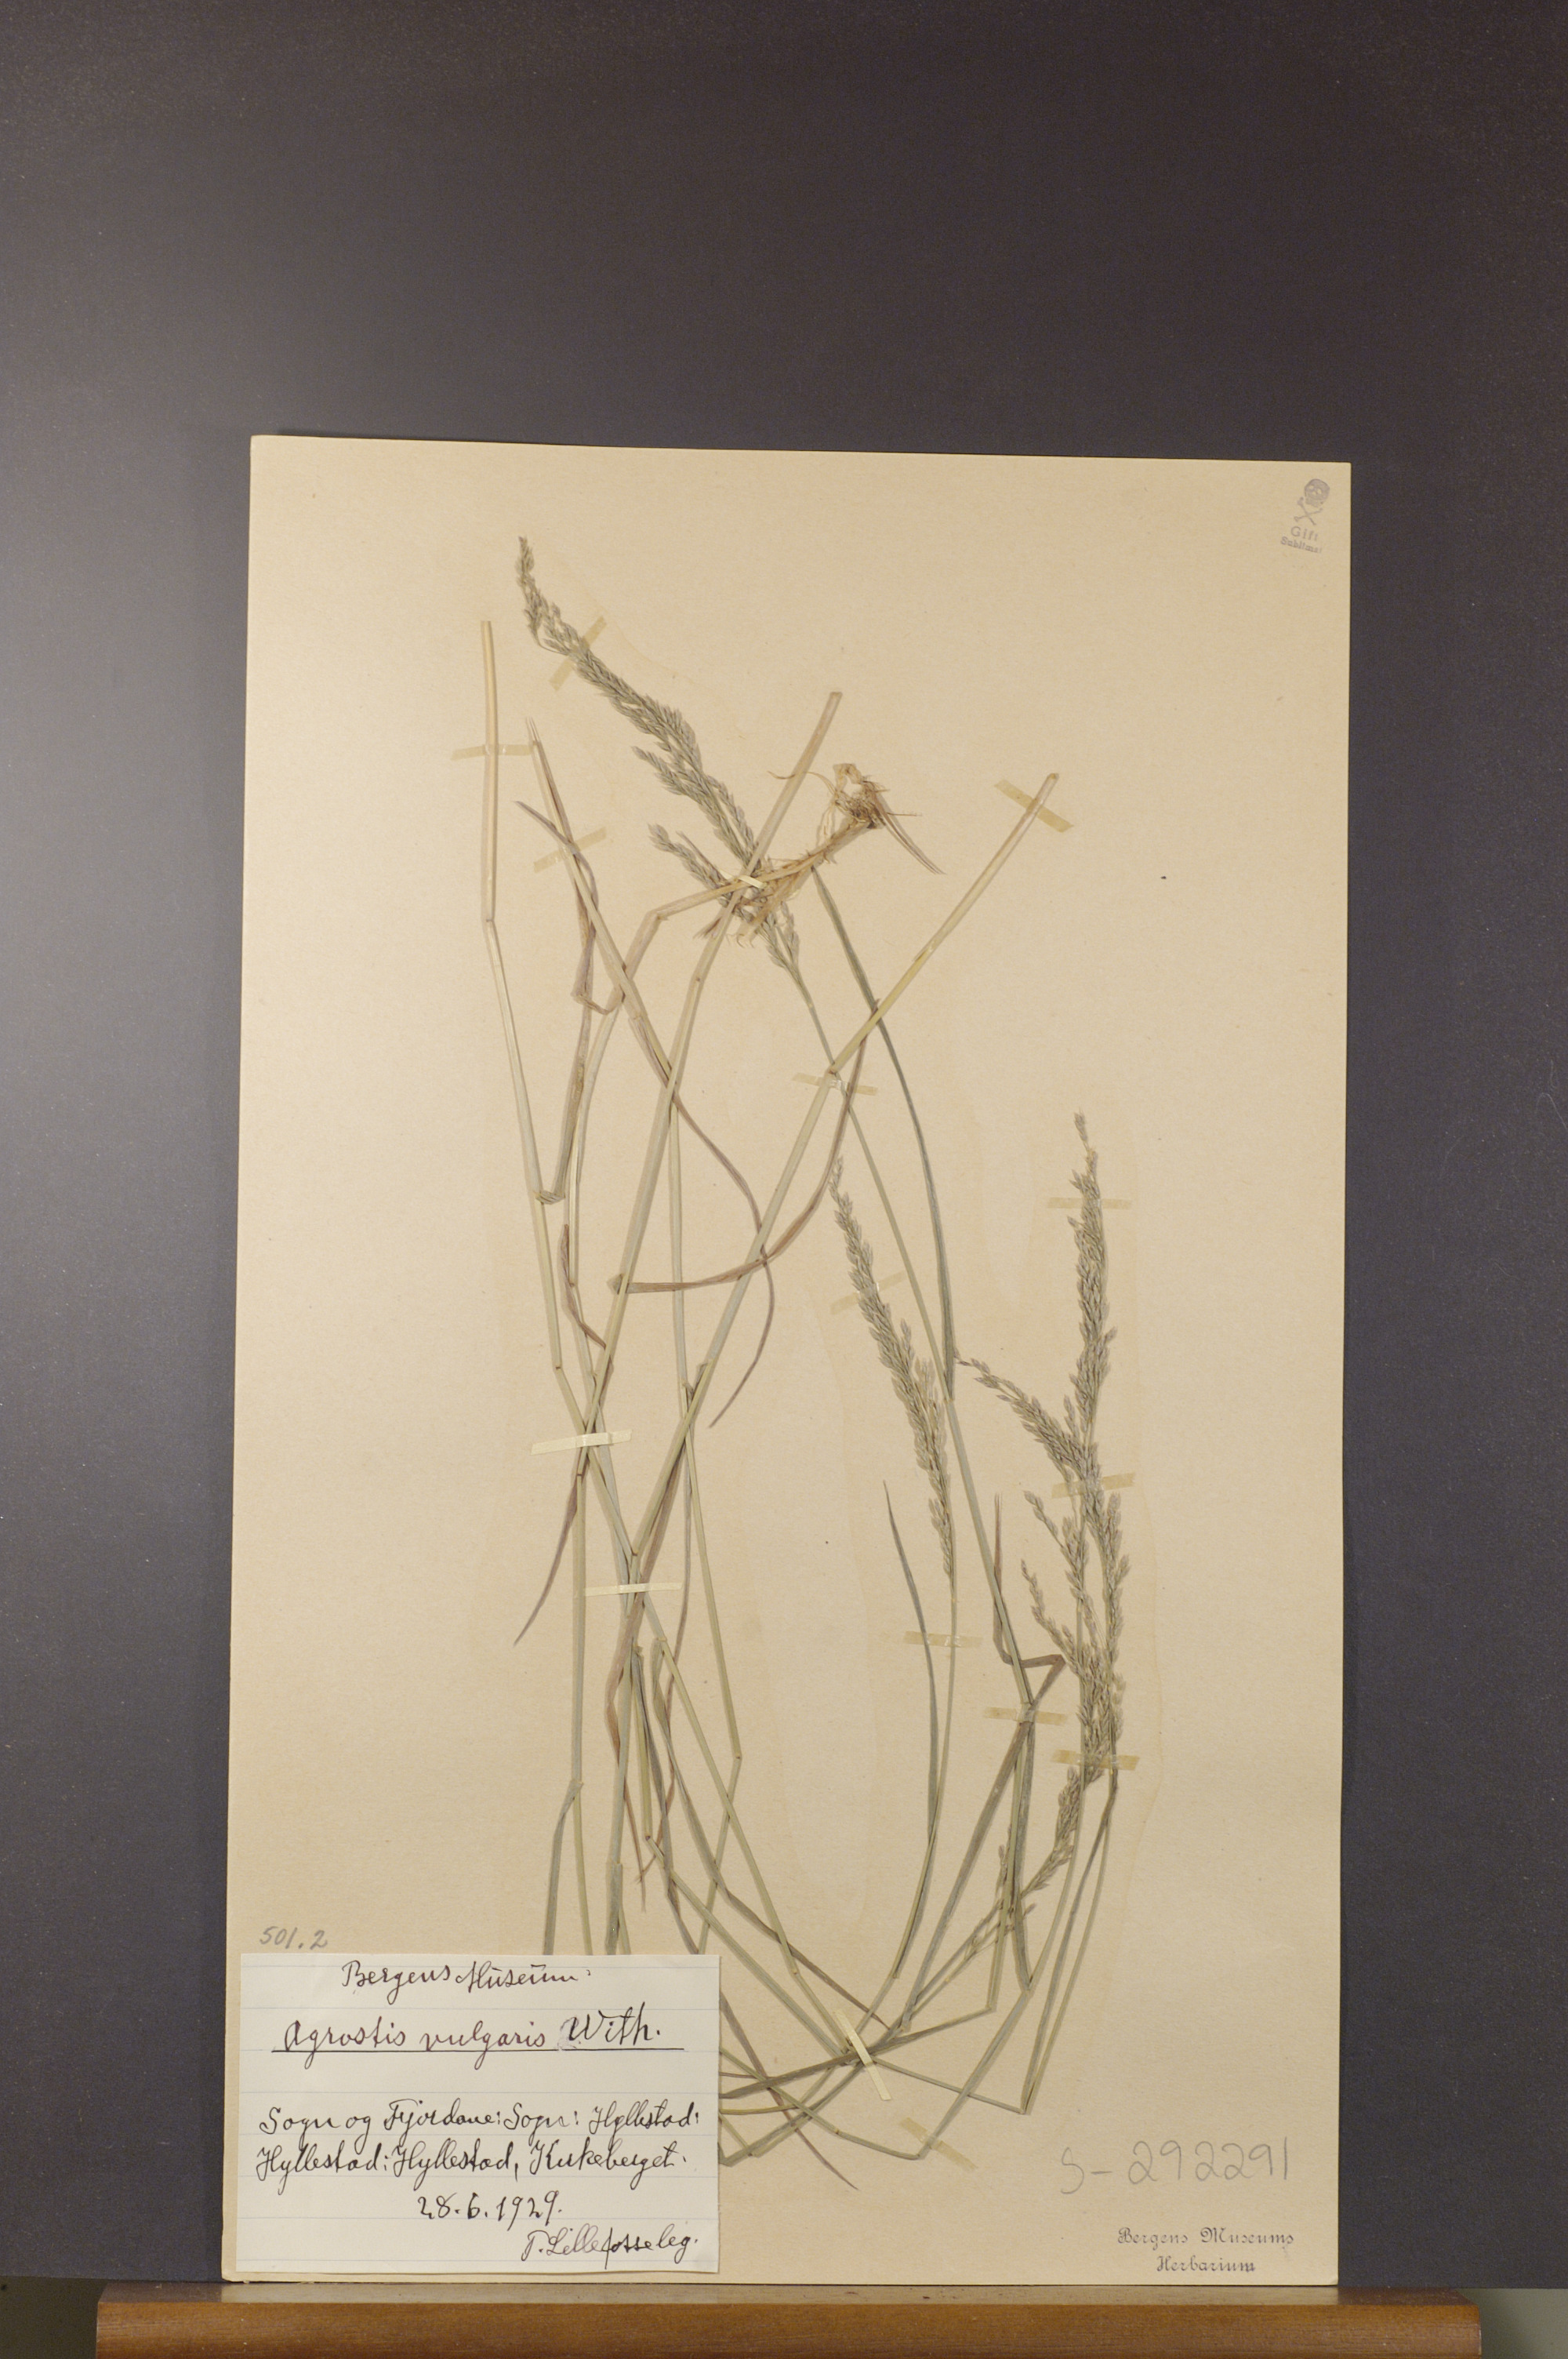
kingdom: Plantae
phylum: Tracheophyta
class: Liliopsida
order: Poales
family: Poaceae
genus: Agrostis
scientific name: Agrostis capillaris
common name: Colonial bentgrass
